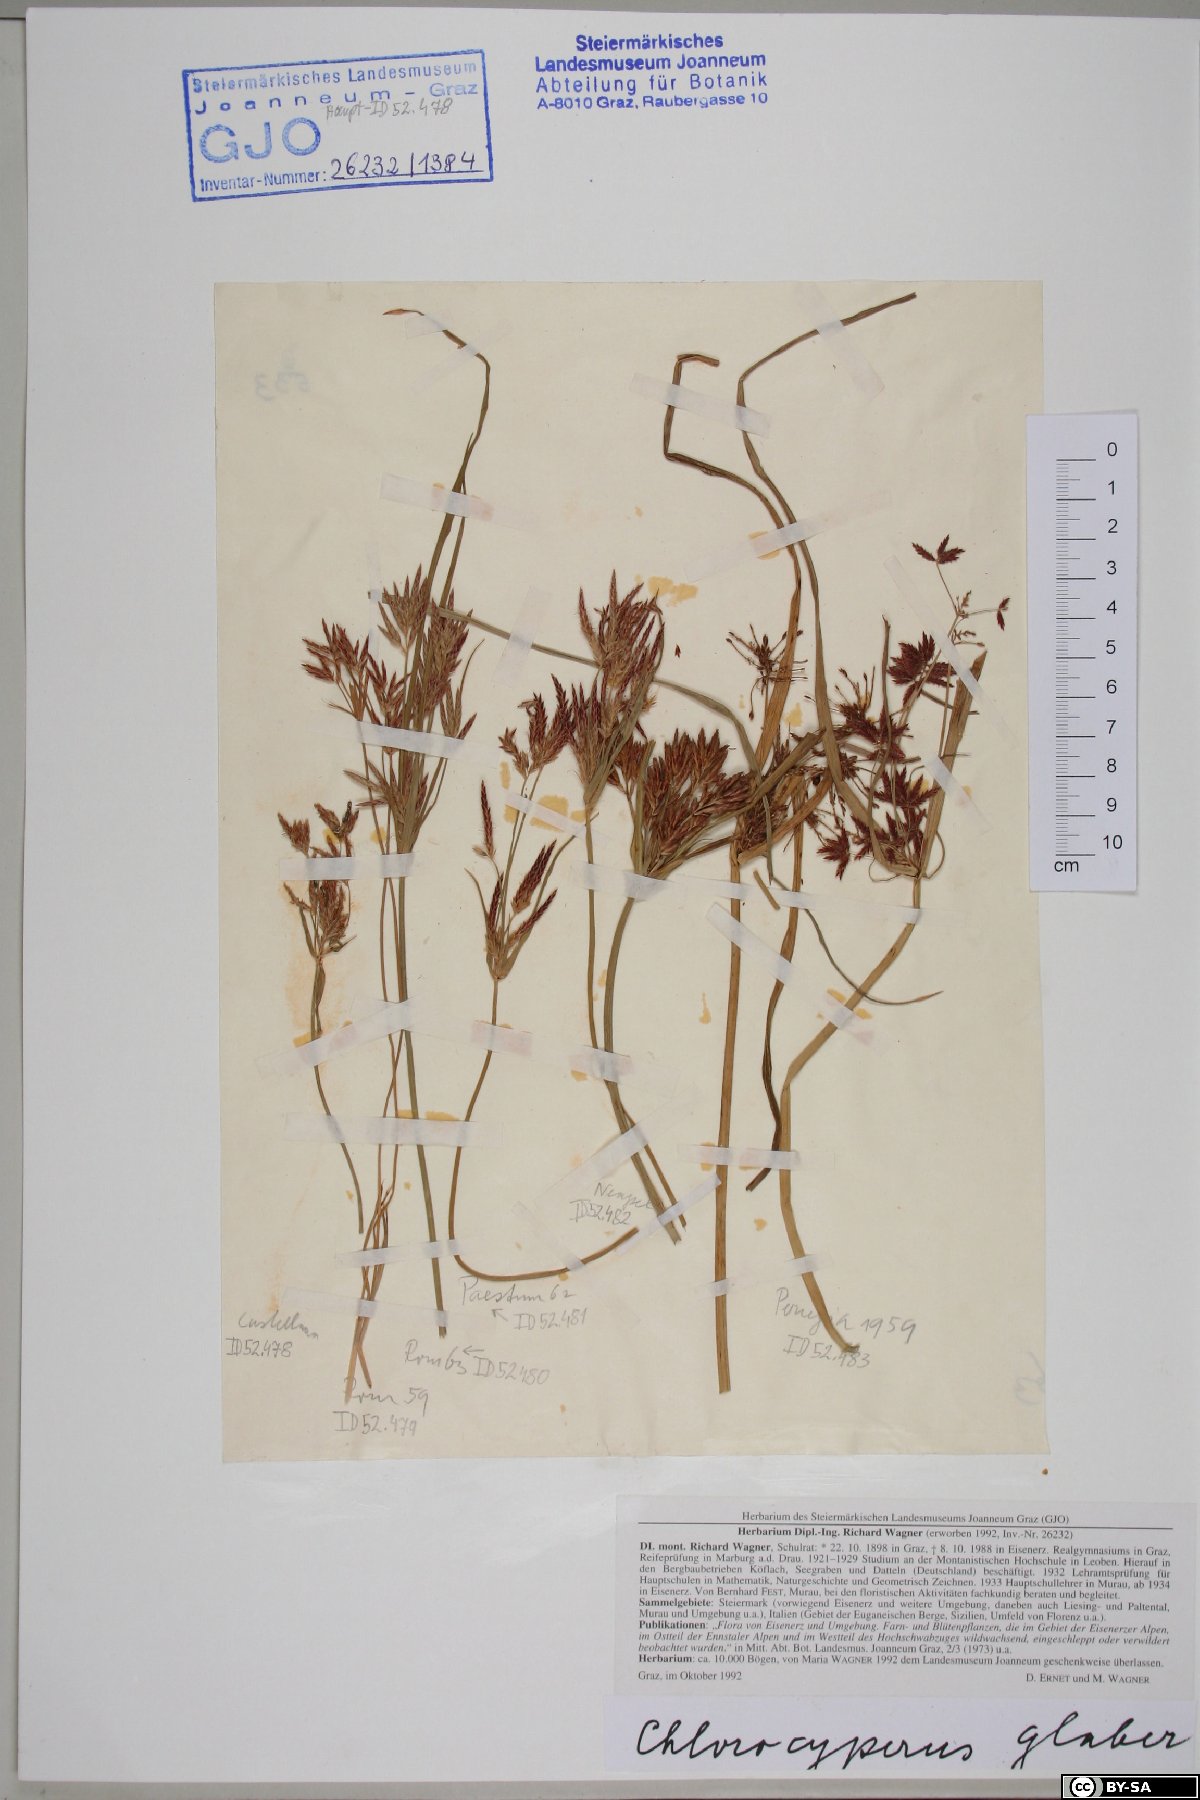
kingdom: Plantae
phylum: Tracheophyta
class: Liliopsida
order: Poales
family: Cyperaceae
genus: Cyperus
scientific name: Cyperus glaber
